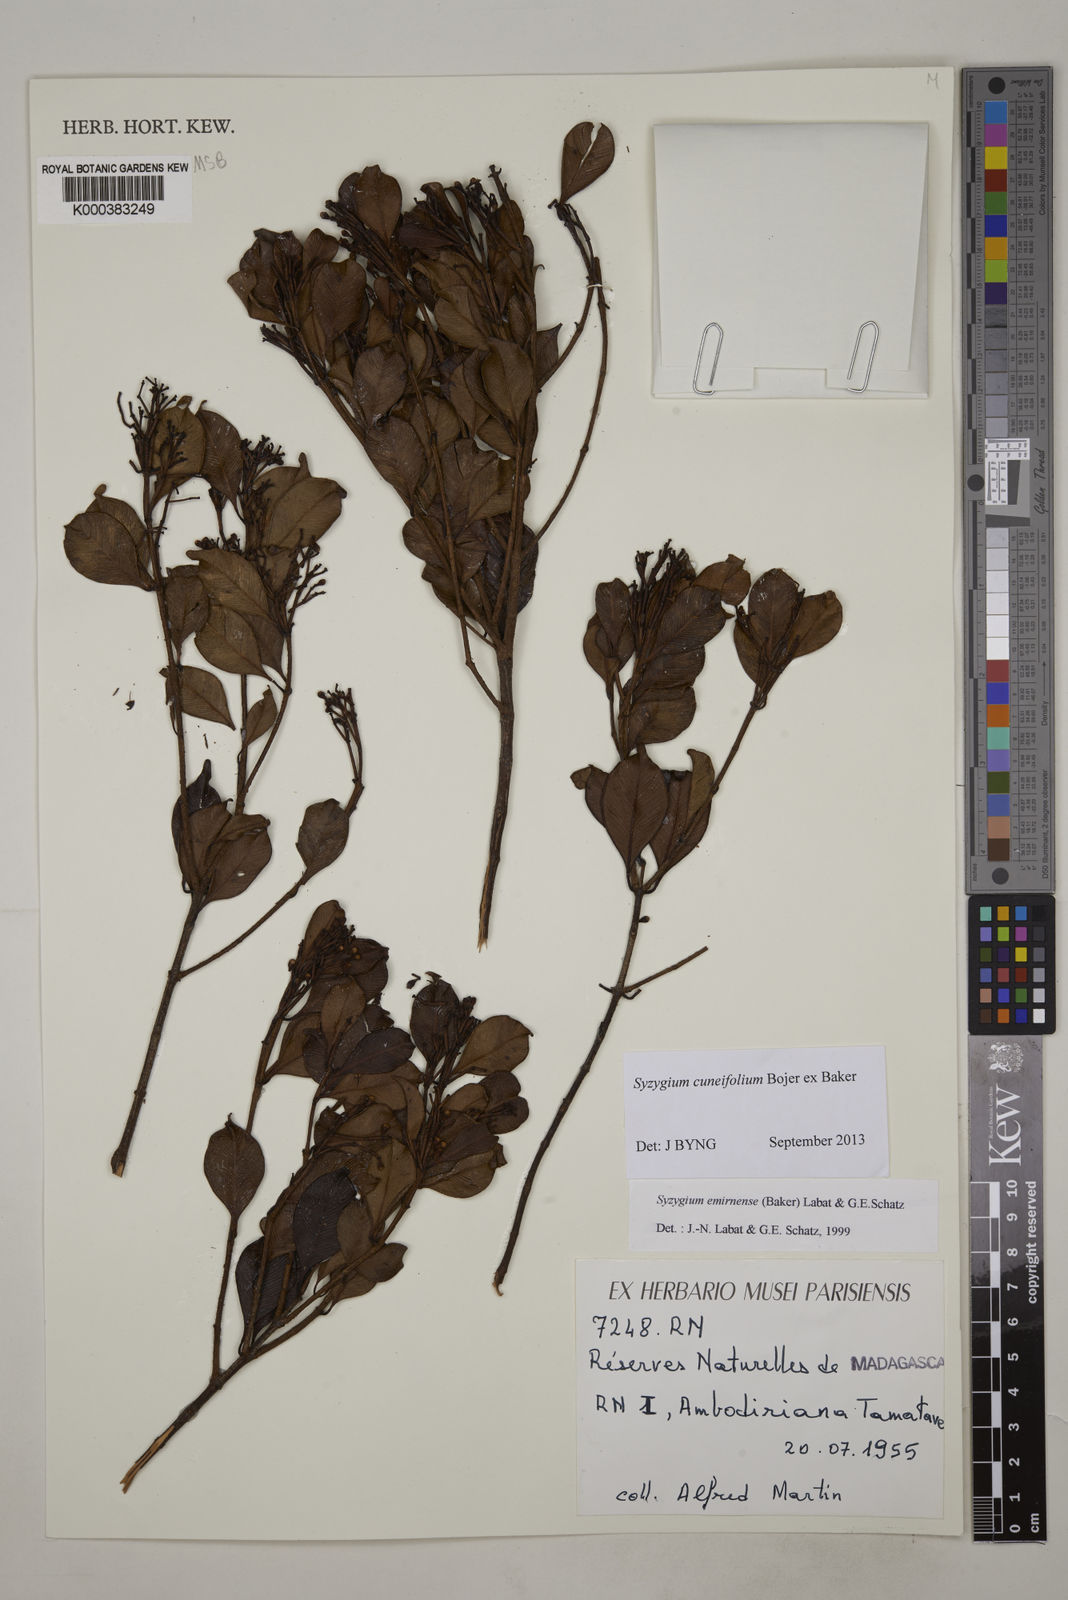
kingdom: Plantae
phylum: Tracheophyta
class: Magnoliopsida
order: Myrtales
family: Myrtaceae
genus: Syzygium
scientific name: Syzygium emirnense
